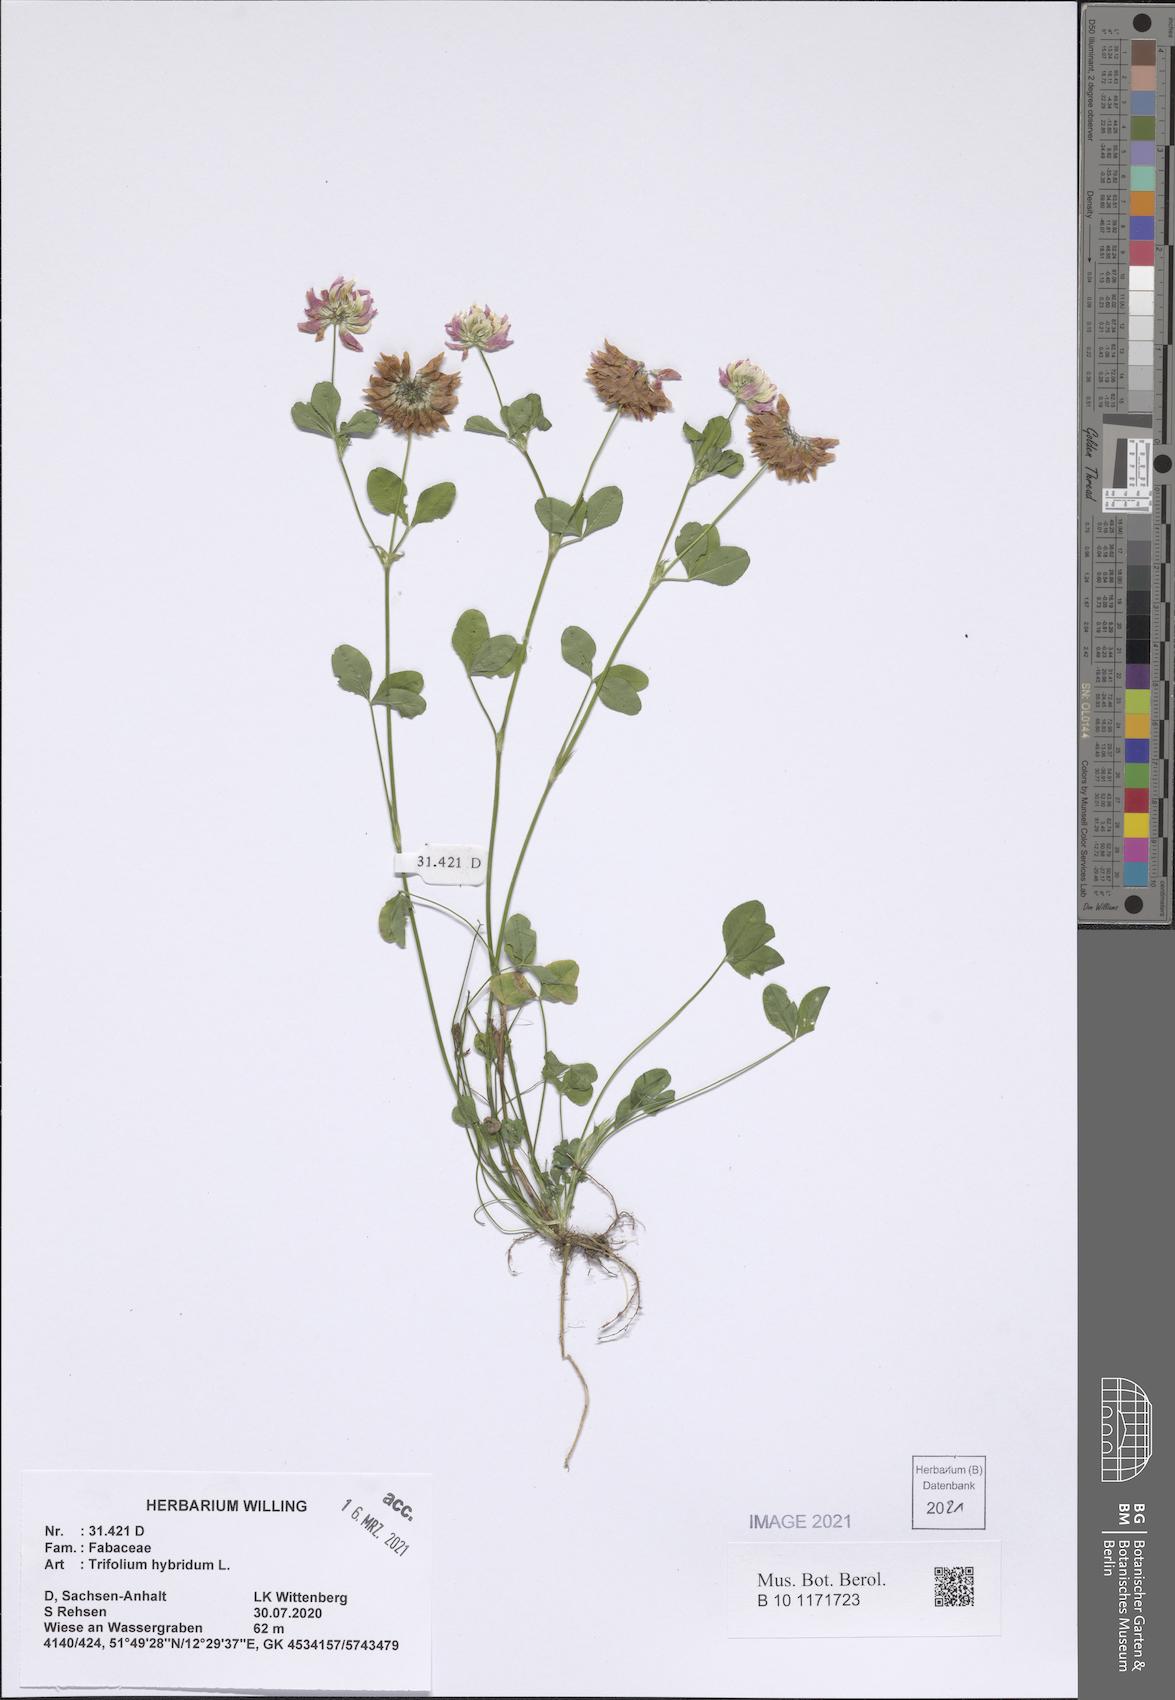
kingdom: Plantae
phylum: Tracheophyta
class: Magnoliopsida
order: Fabales
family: Fabaceae
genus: Trifolium
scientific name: Trifolium hybridum
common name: Alsike clover
